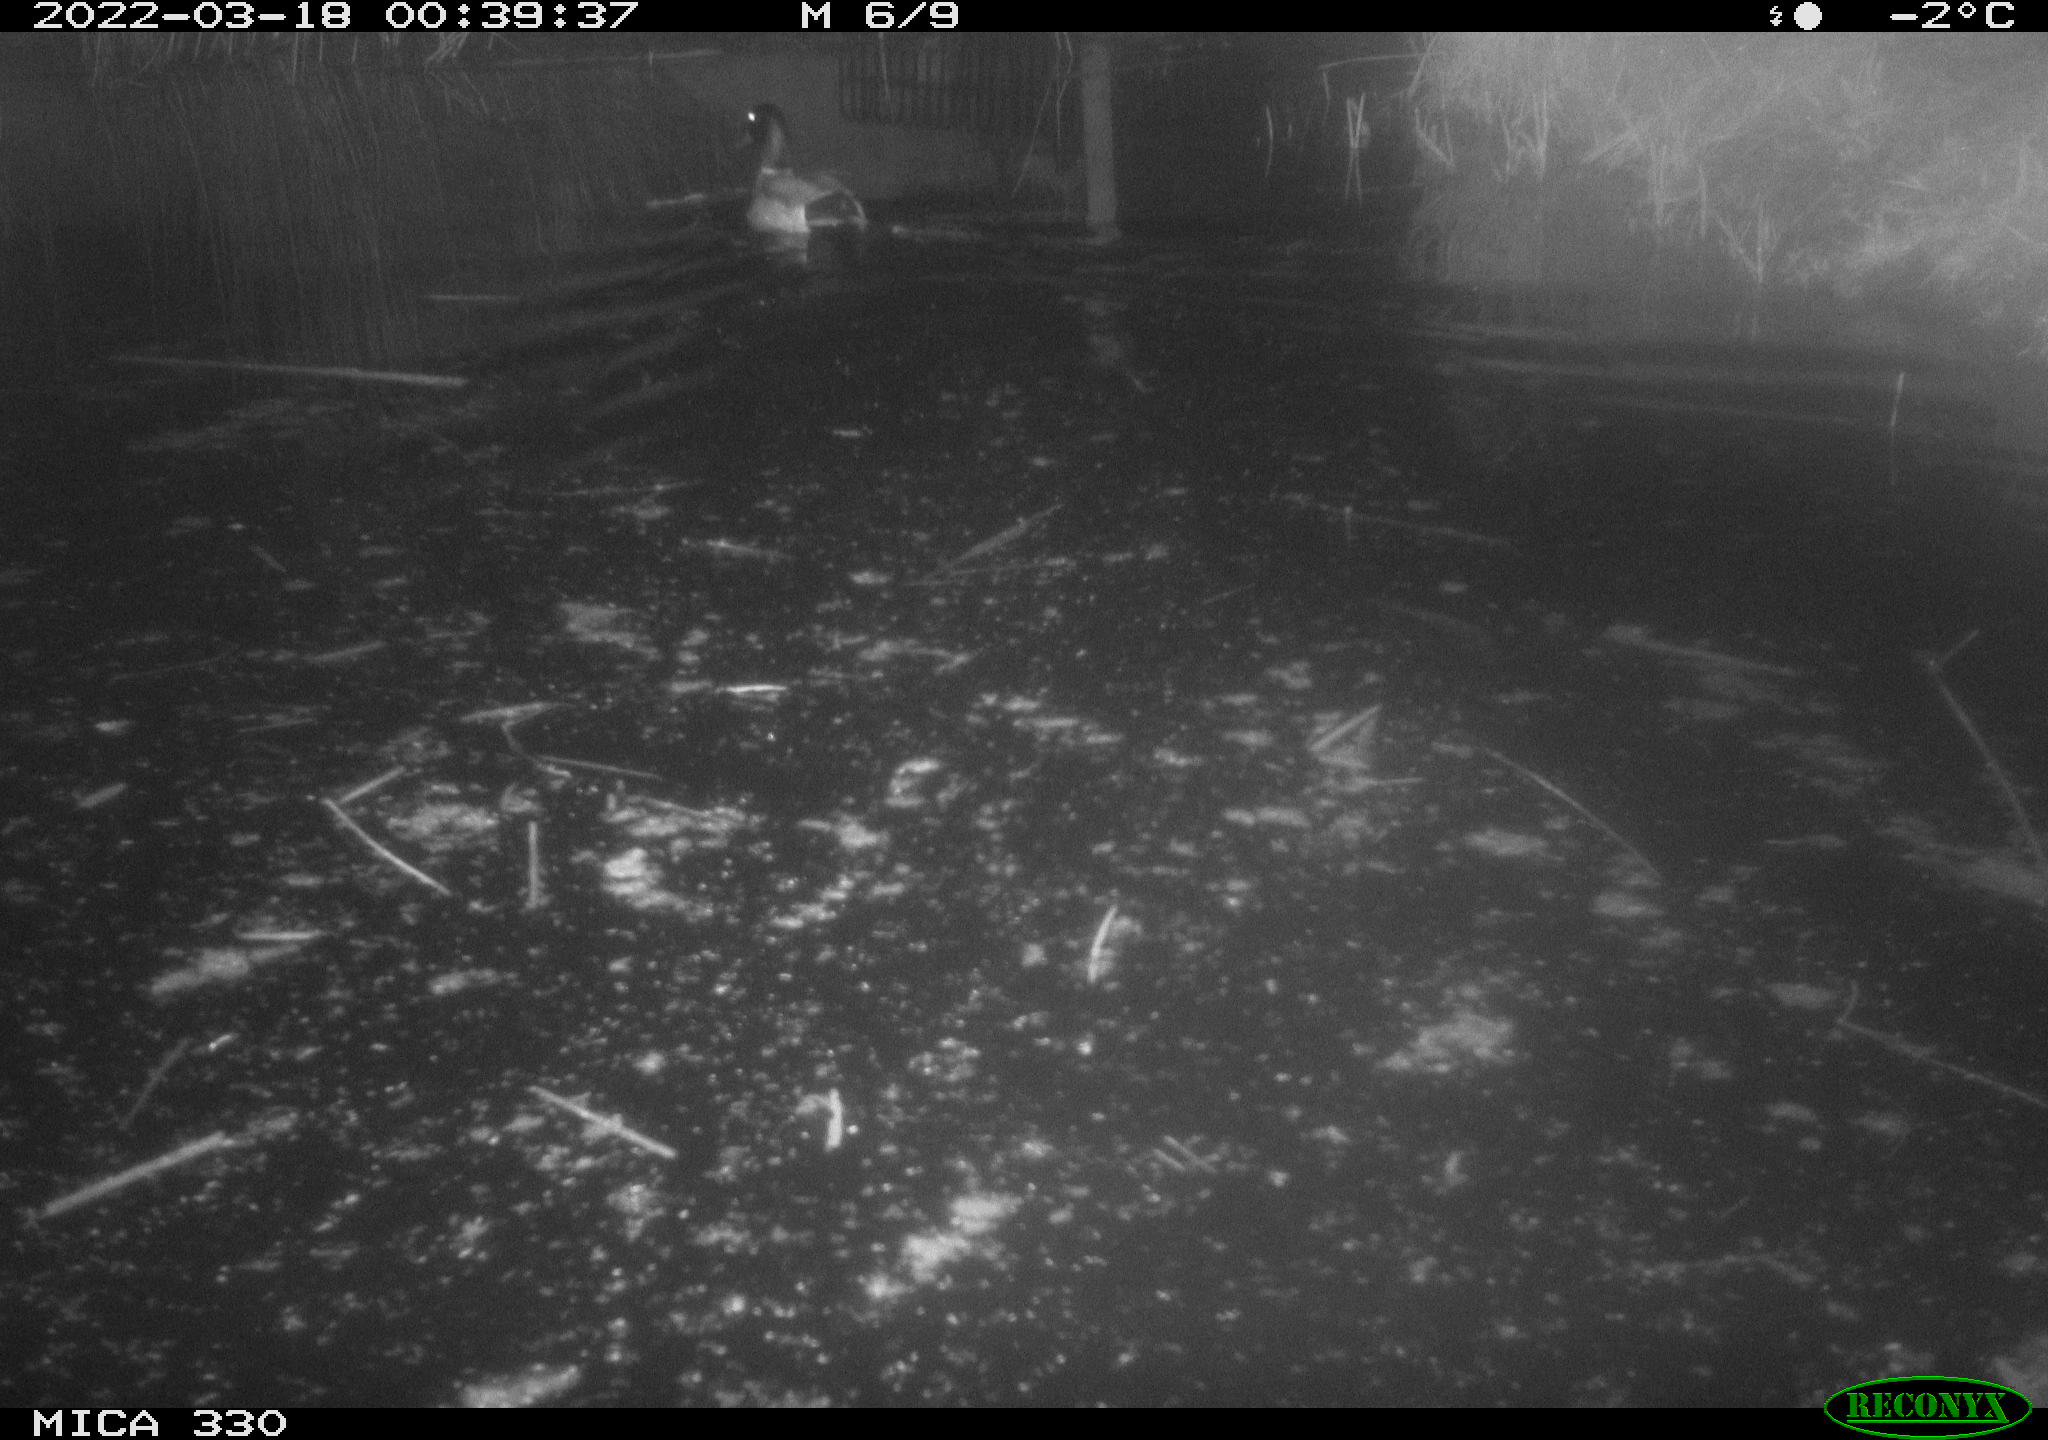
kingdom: Animalia
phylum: Chordata
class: Aves
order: Anseriformes
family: Anatidae
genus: Anas
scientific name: Anas platyrhynchos
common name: Mallard
